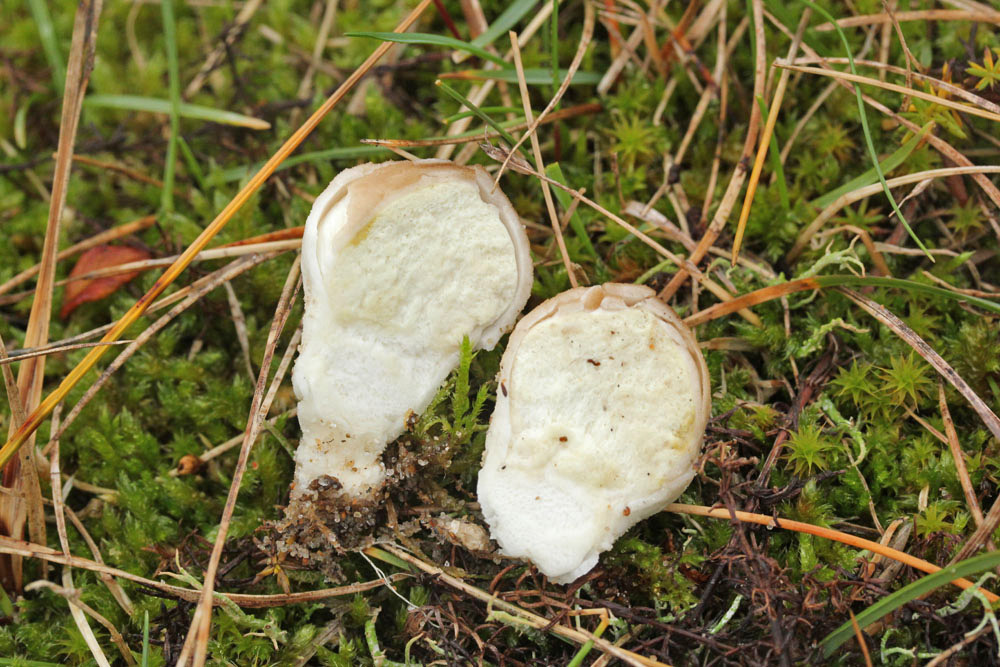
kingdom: Fungi
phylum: Basidiomycota
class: Agaricomycetes
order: Agaricales
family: Lycoperdaceae
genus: Lycoperdon
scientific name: Lycoperdon lividum
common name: mark-støvbold
